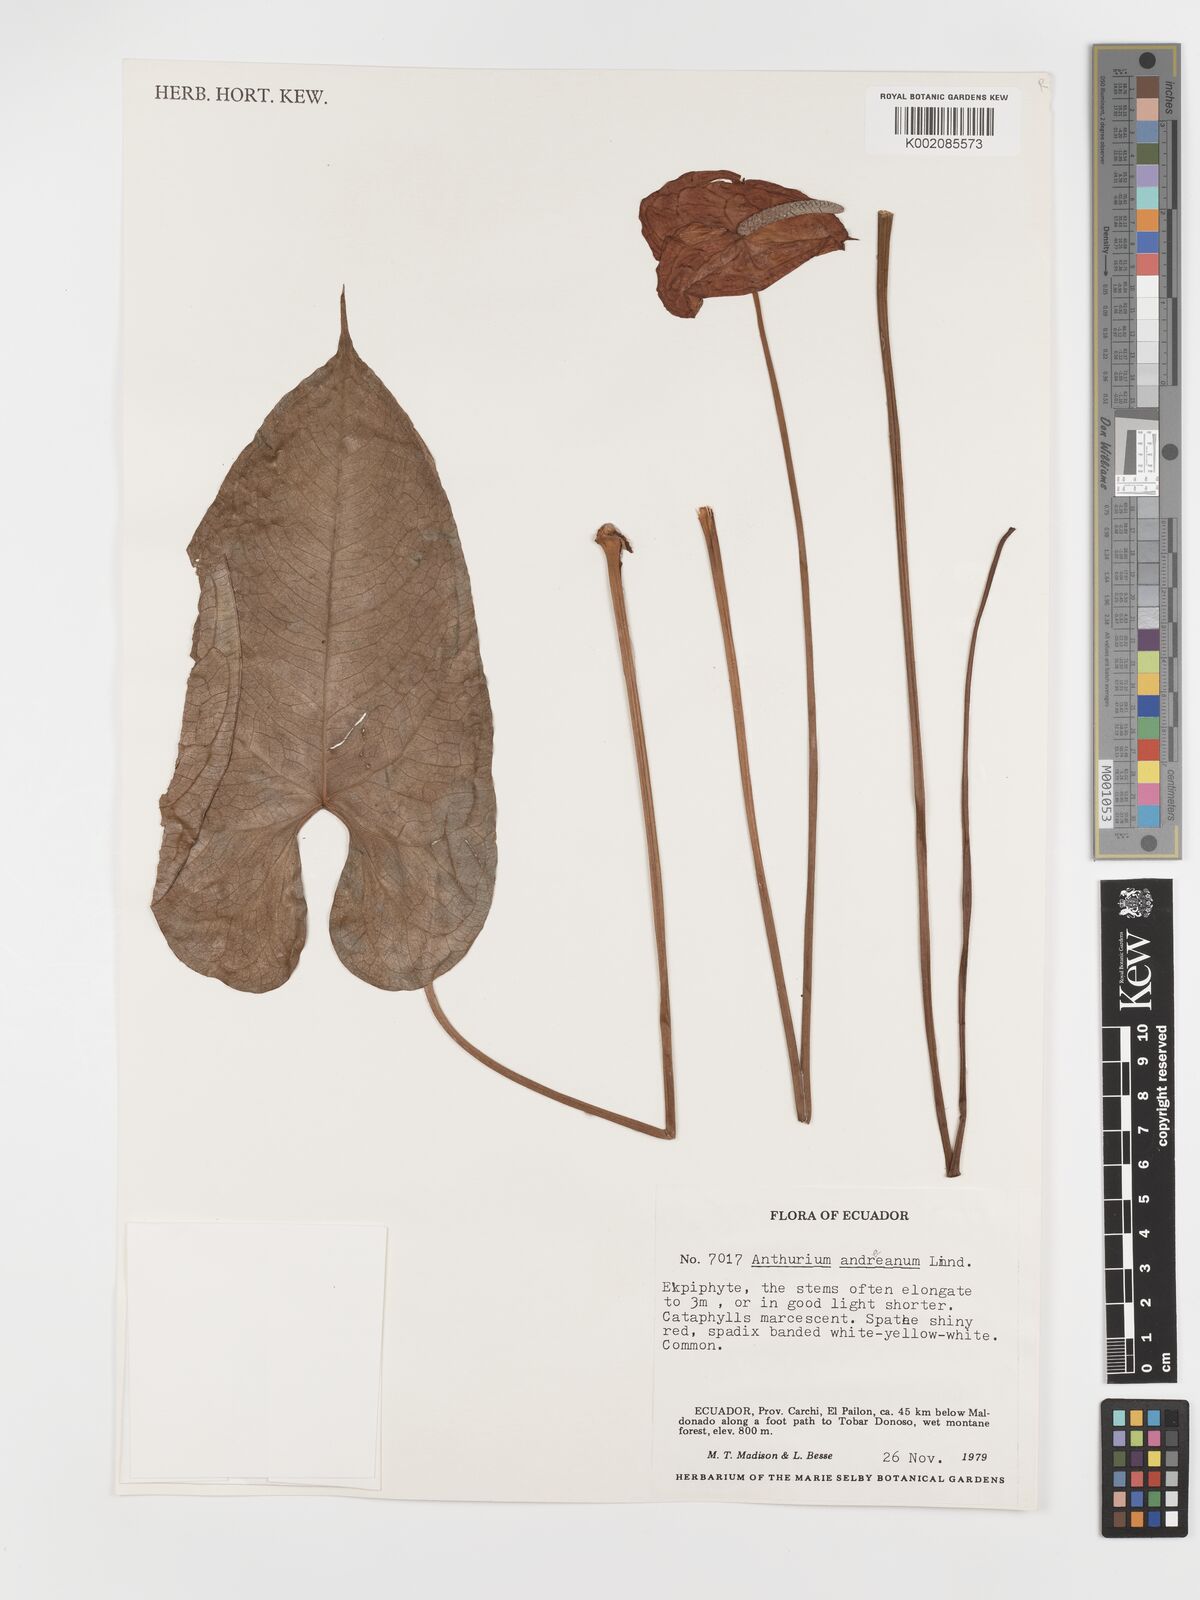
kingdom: Plantae
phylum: Tracheophyta
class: Liliopsida
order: Alismatales
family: Araceae
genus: Anthurium
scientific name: Anthurium andraeanum
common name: Flamingo-flower
